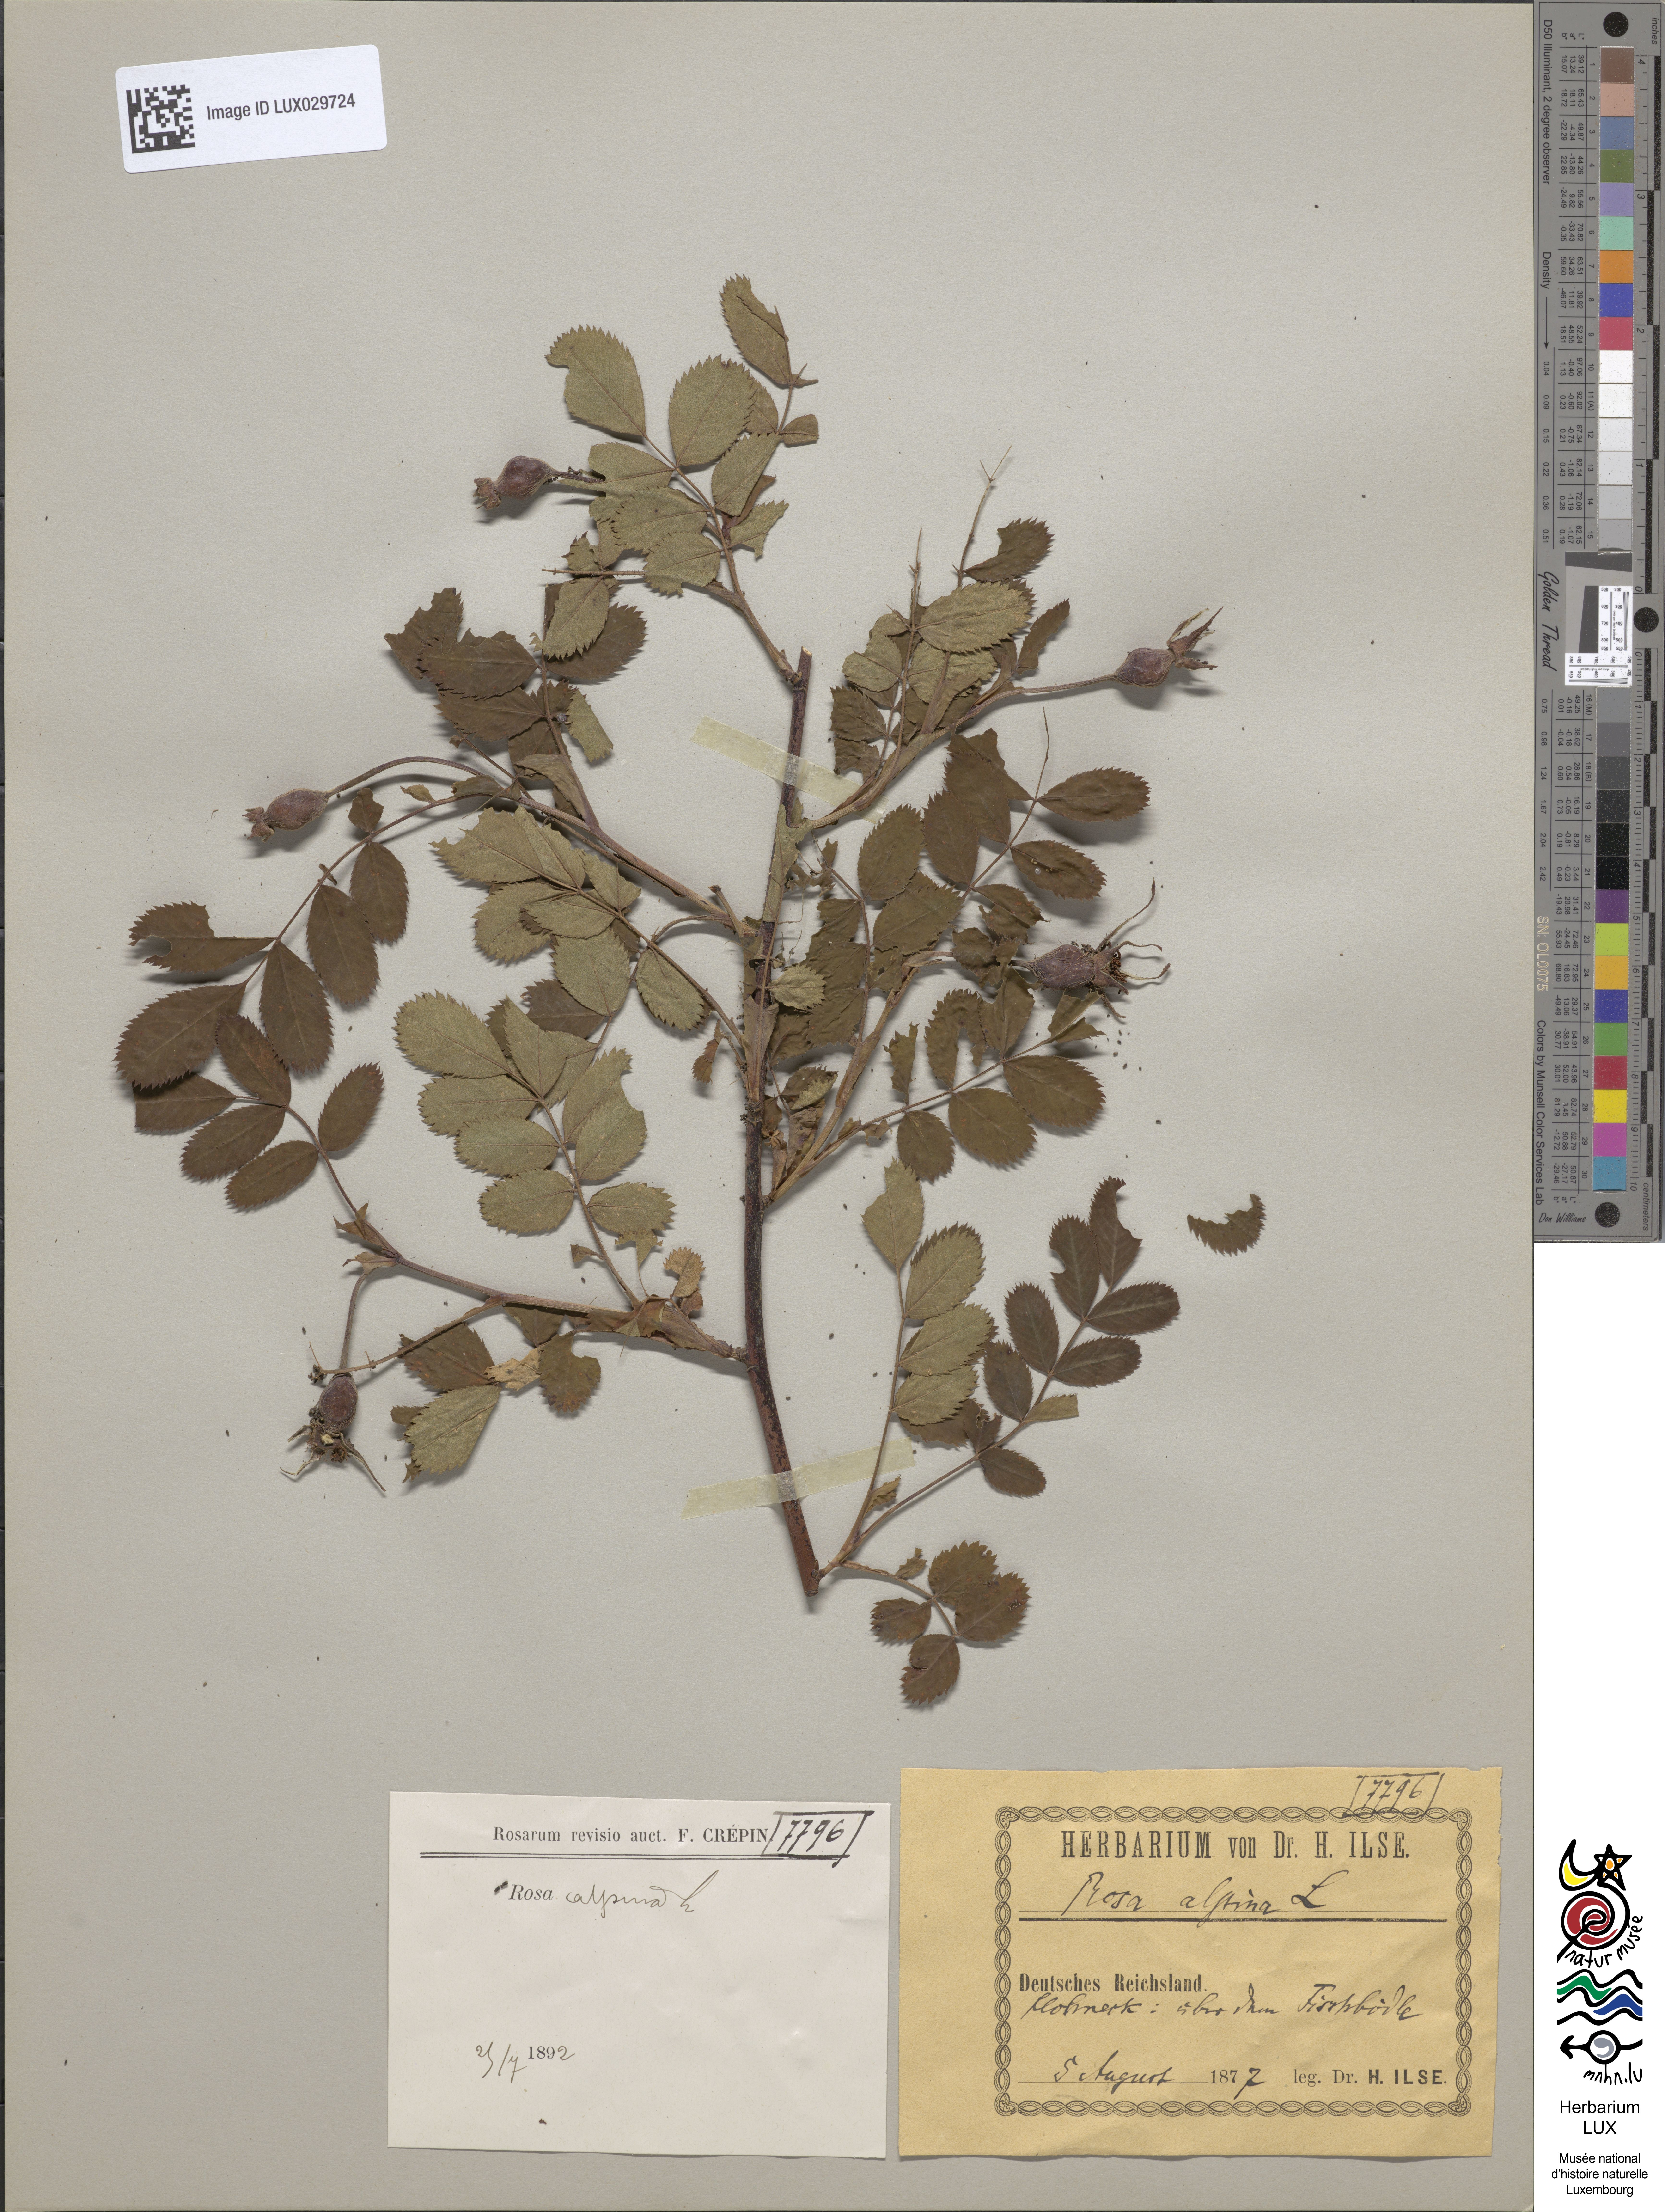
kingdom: Plantae
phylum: Tracheophyta
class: Magnoliopsida
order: Rosales
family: Rosaceae
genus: Rosa
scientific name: Rosa pendulina
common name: Alpine rose
